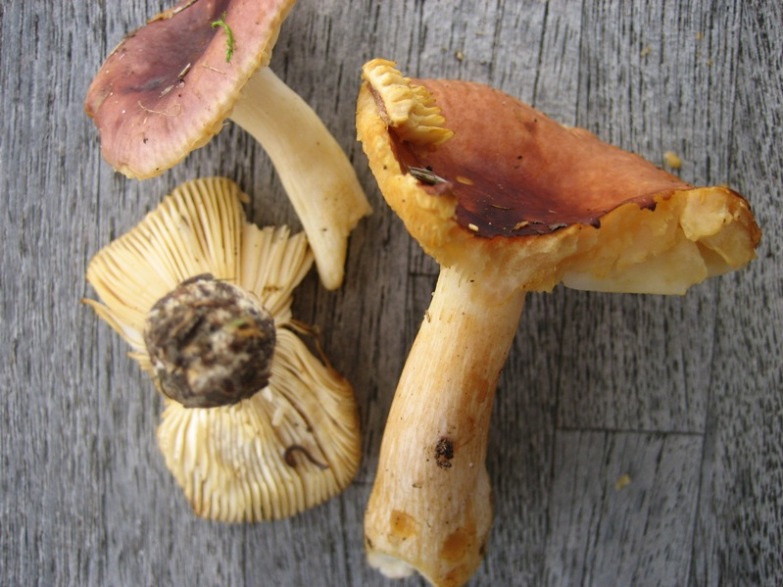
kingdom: Fungi
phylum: Basidiomycota
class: Agaricomycetes
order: Russulales
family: Russulaceae
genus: Russula
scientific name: Russula puellaris
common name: gulstokket skørhat
